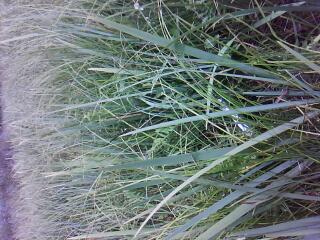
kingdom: Plantae
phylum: Tracheophyta
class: Polypodiopsida
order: Polypodiales
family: Onocleaceae
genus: Onoclea
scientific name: Onoclea sensibilis
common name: Sensitive fern
